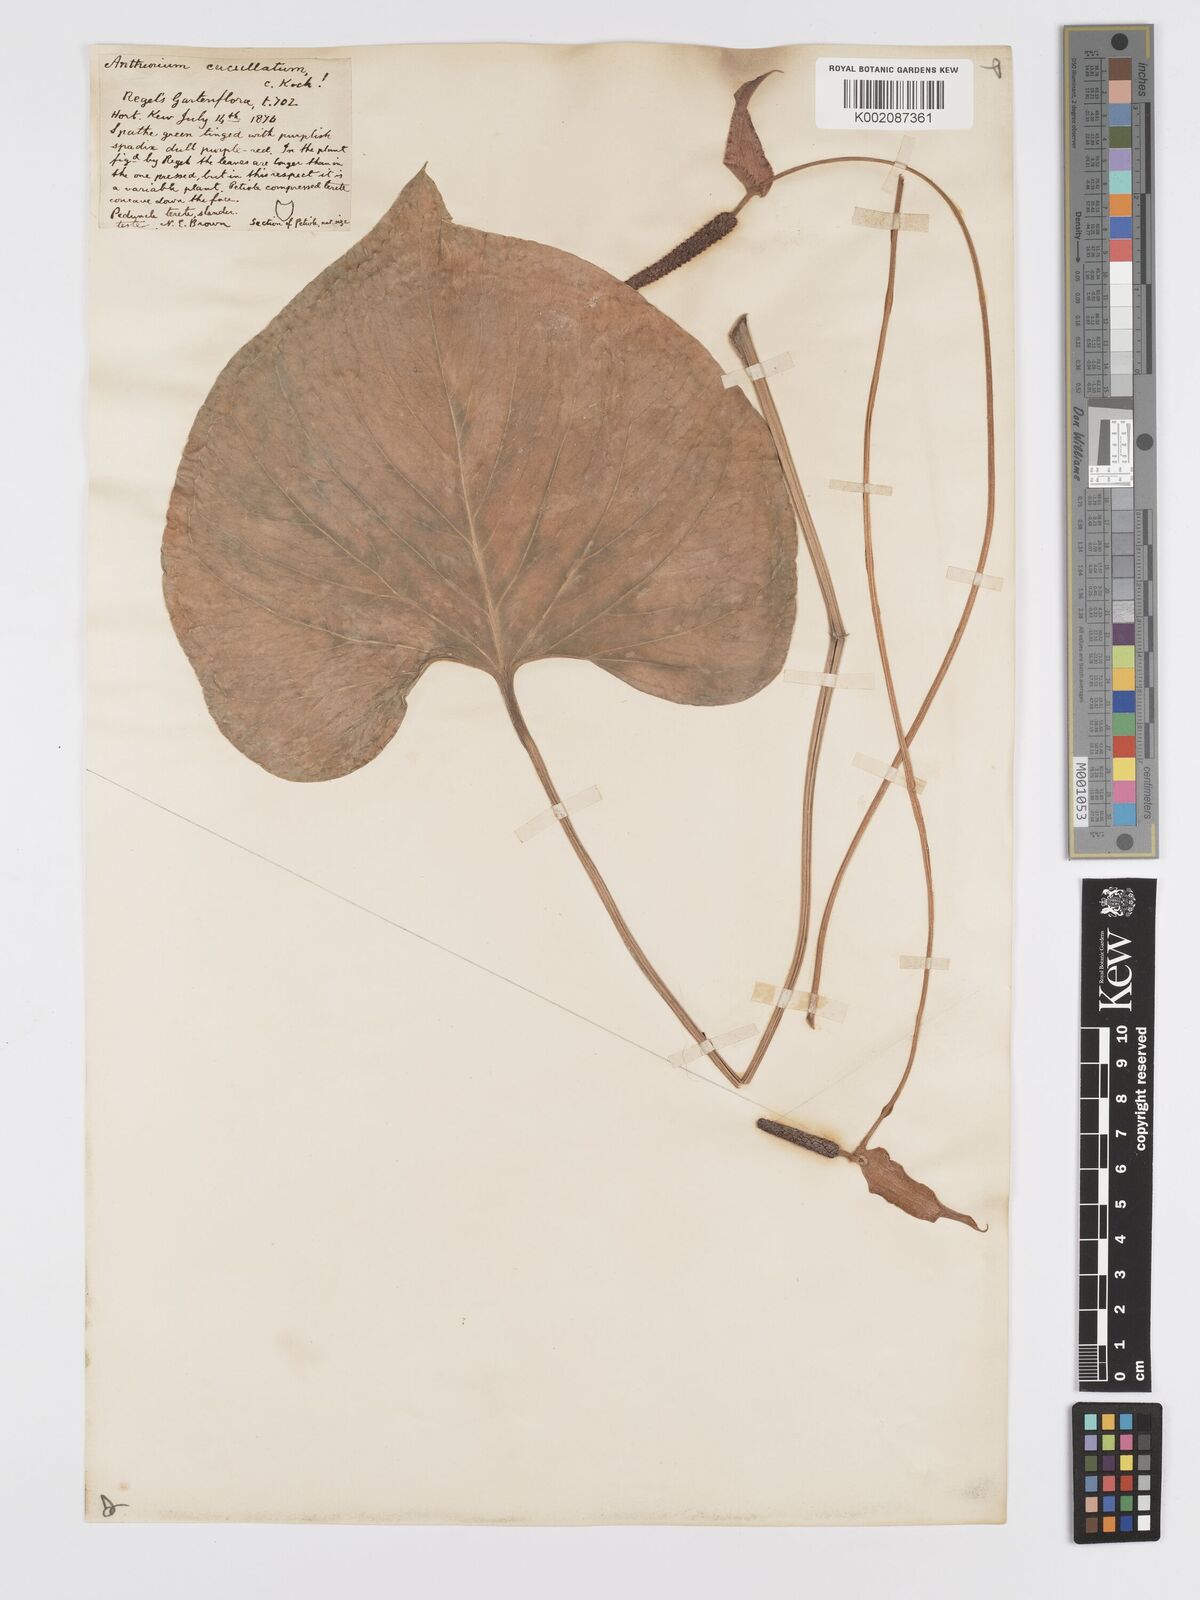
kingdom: Plantae
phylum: Tracheophyta
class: Liliopsida
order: Alismatales
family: Araceae
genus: Anthurium
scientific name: Anthurium andicola
